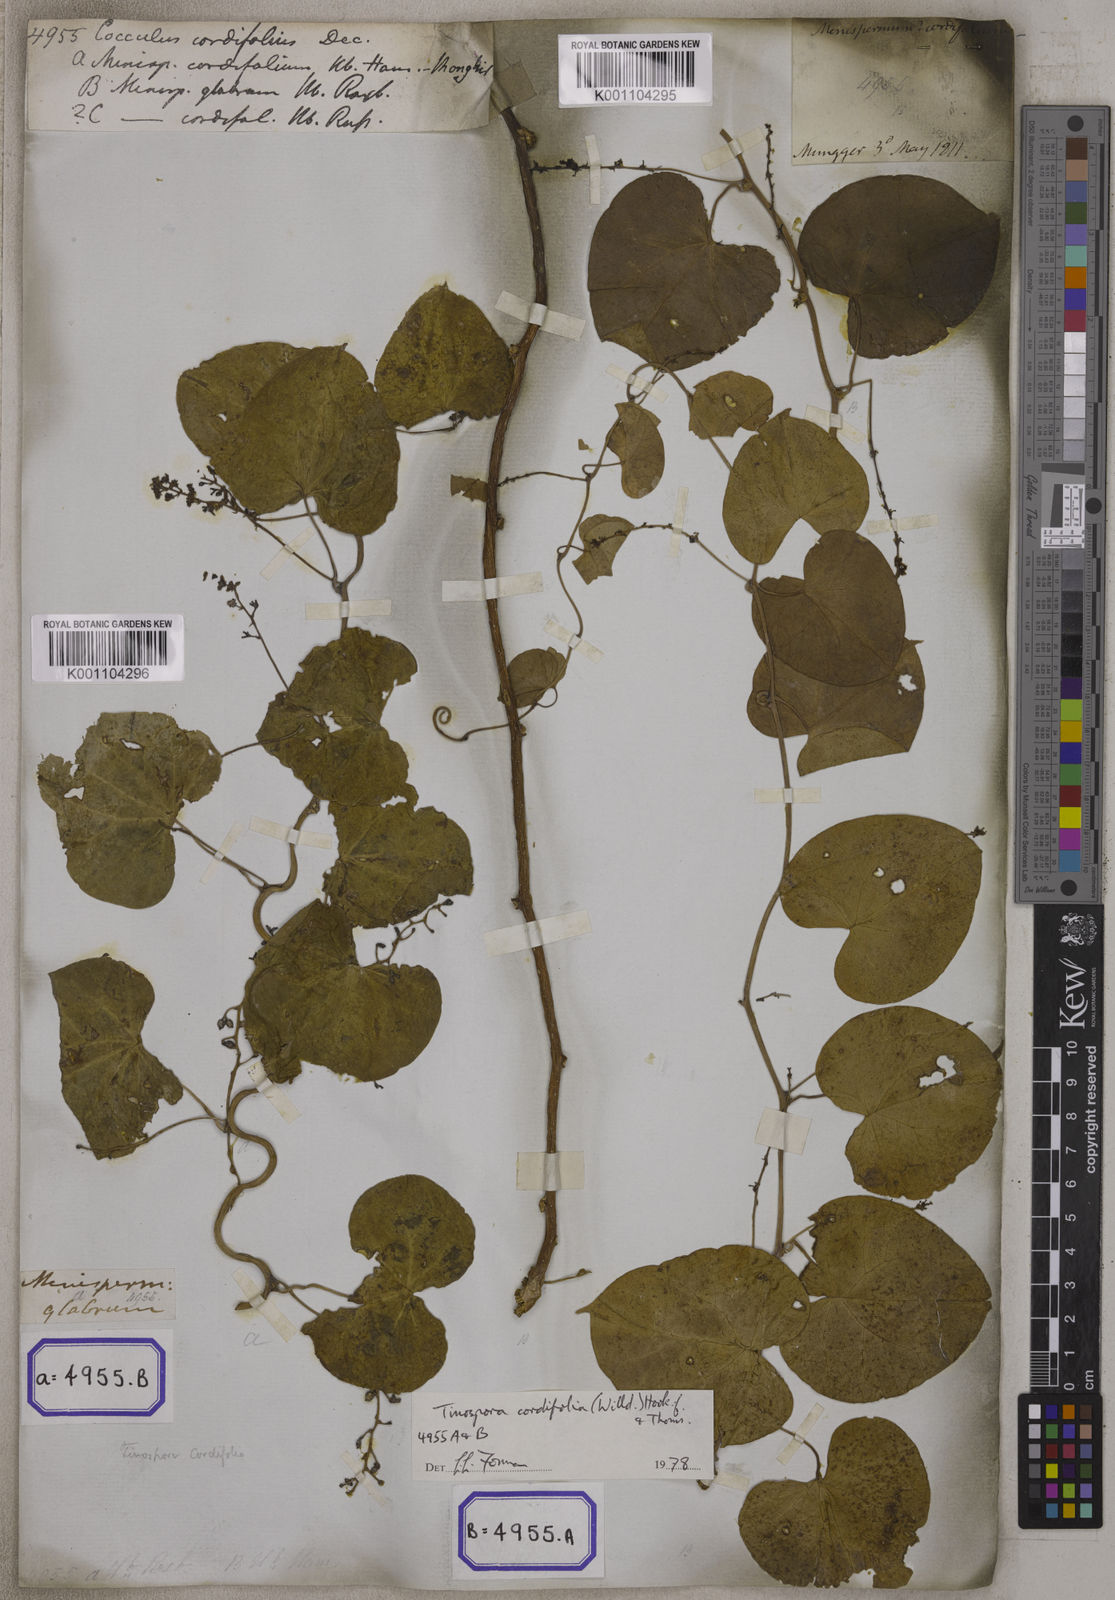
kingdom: Plantae
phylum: Tracheophyta
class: Magnoliopsida
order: Ranunculales
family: Menispermaceae
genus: Tinospora
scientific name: Tinospora glabra
